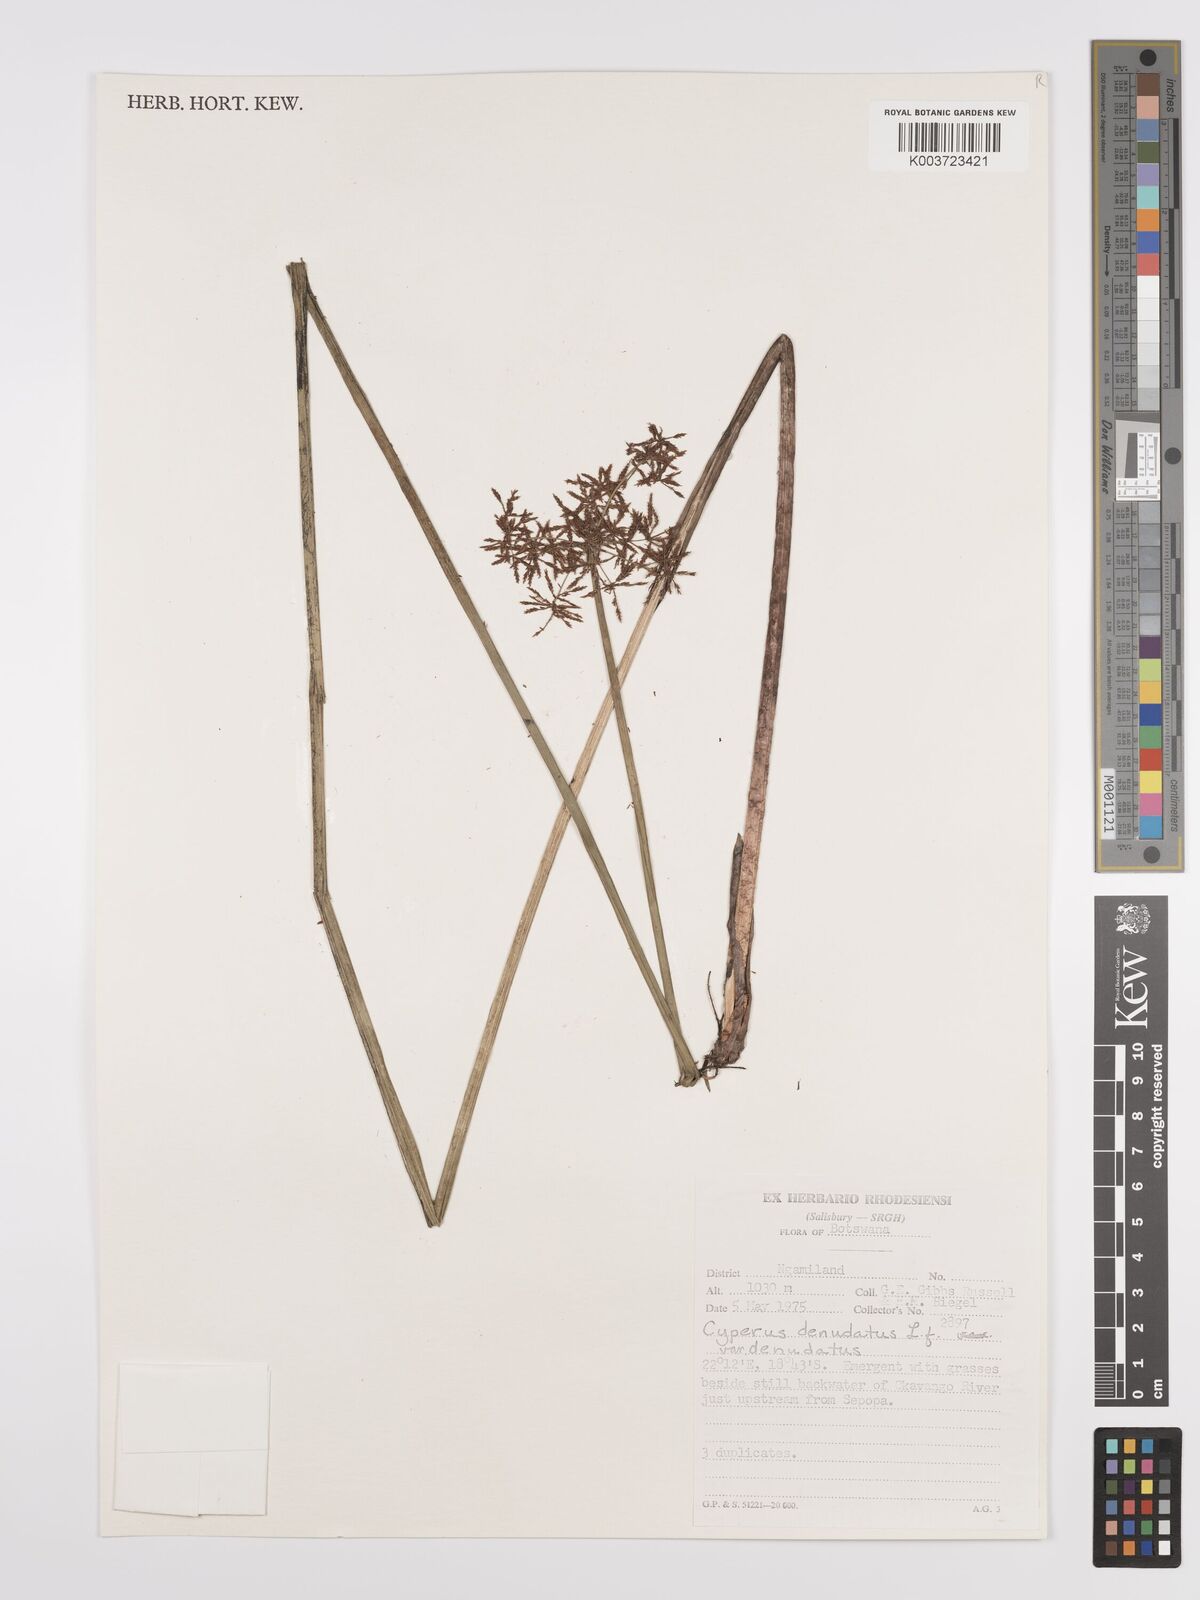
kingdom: Plantae
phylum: Tracheophyta
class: Liliopsida
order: Poales
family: Cyperaceae
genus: Cyperus
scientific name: Cyperus denudatus
